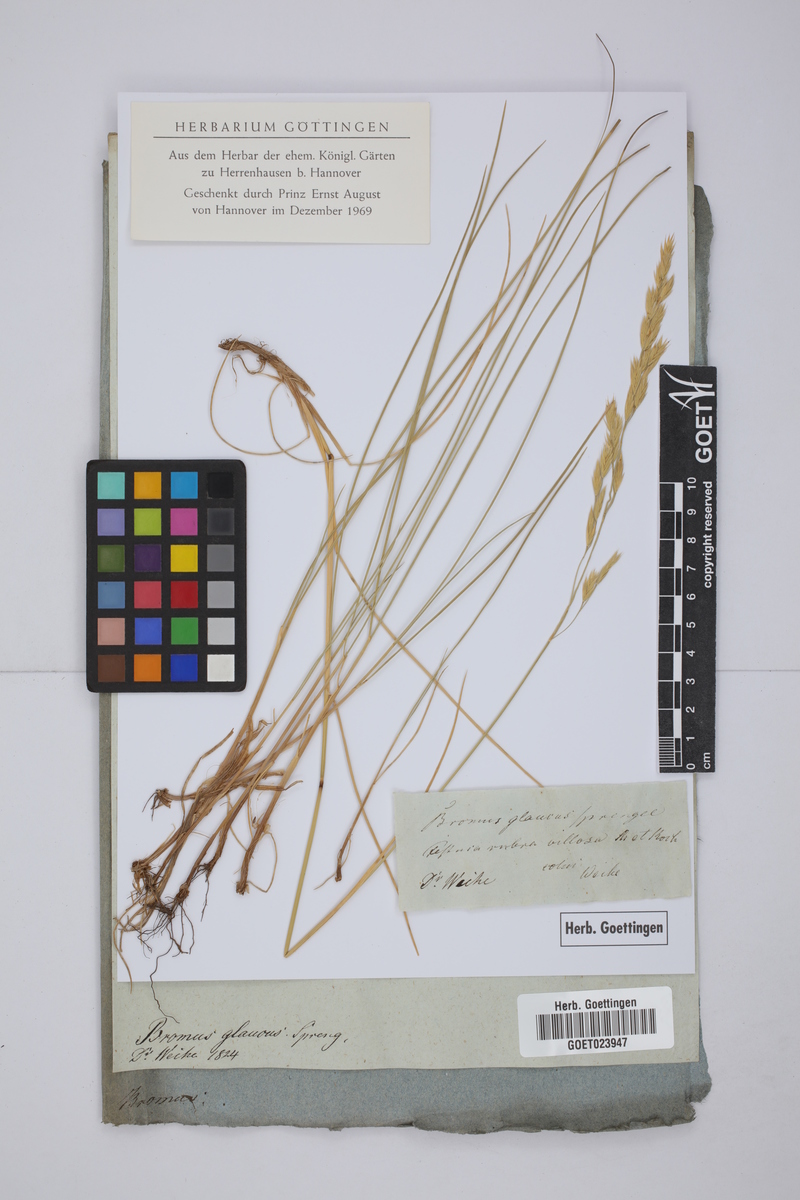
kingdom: Plantae
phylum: Tracheophyta
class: Liliopsida
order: Poales
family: Poaceae
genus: Festuca
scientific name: Festuca rubra
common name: Red fescue
